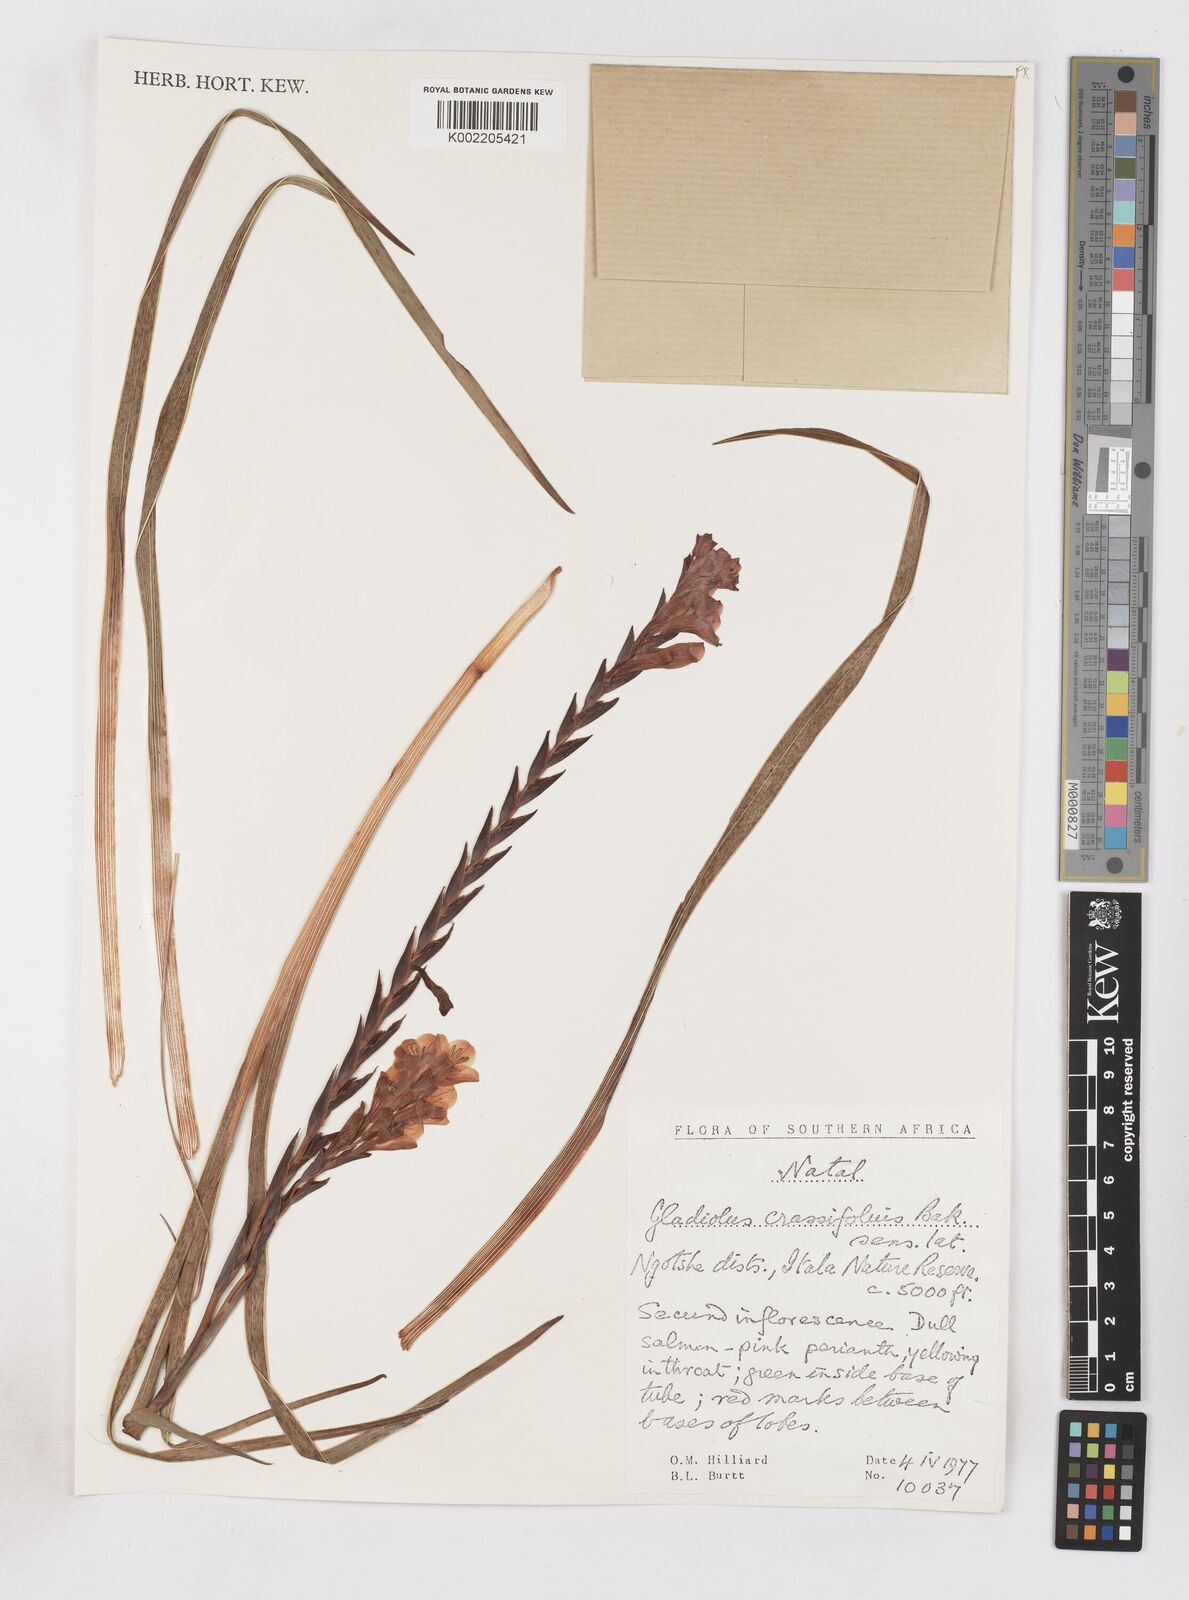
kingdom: Plantae
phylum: Tracheophyta
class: Liliopsida
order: Asparagales
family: Iridaceae
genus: Gladiolus
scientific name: Gladiolus densiflorus
